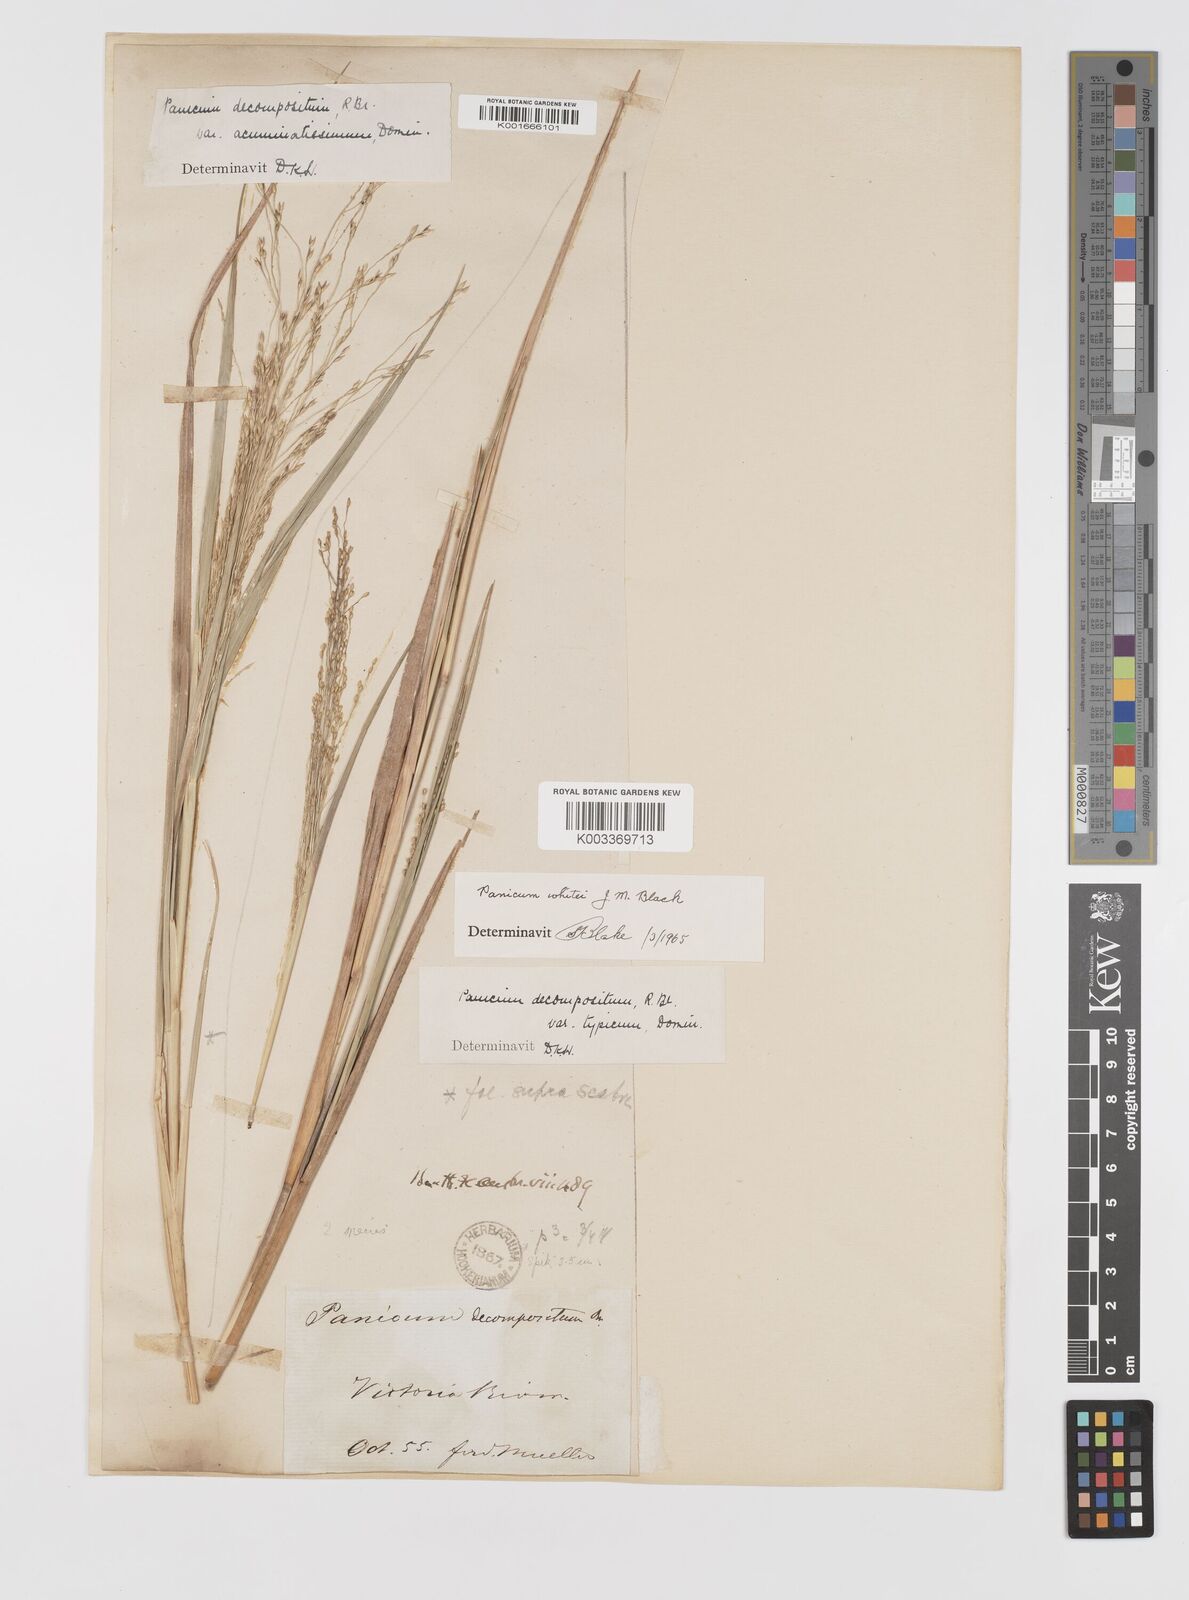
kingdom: Plantae
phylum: Tracheophyta
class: Liliopsida
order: Poales
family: Poaceae
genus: Panicum
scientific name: Panicum latzii
